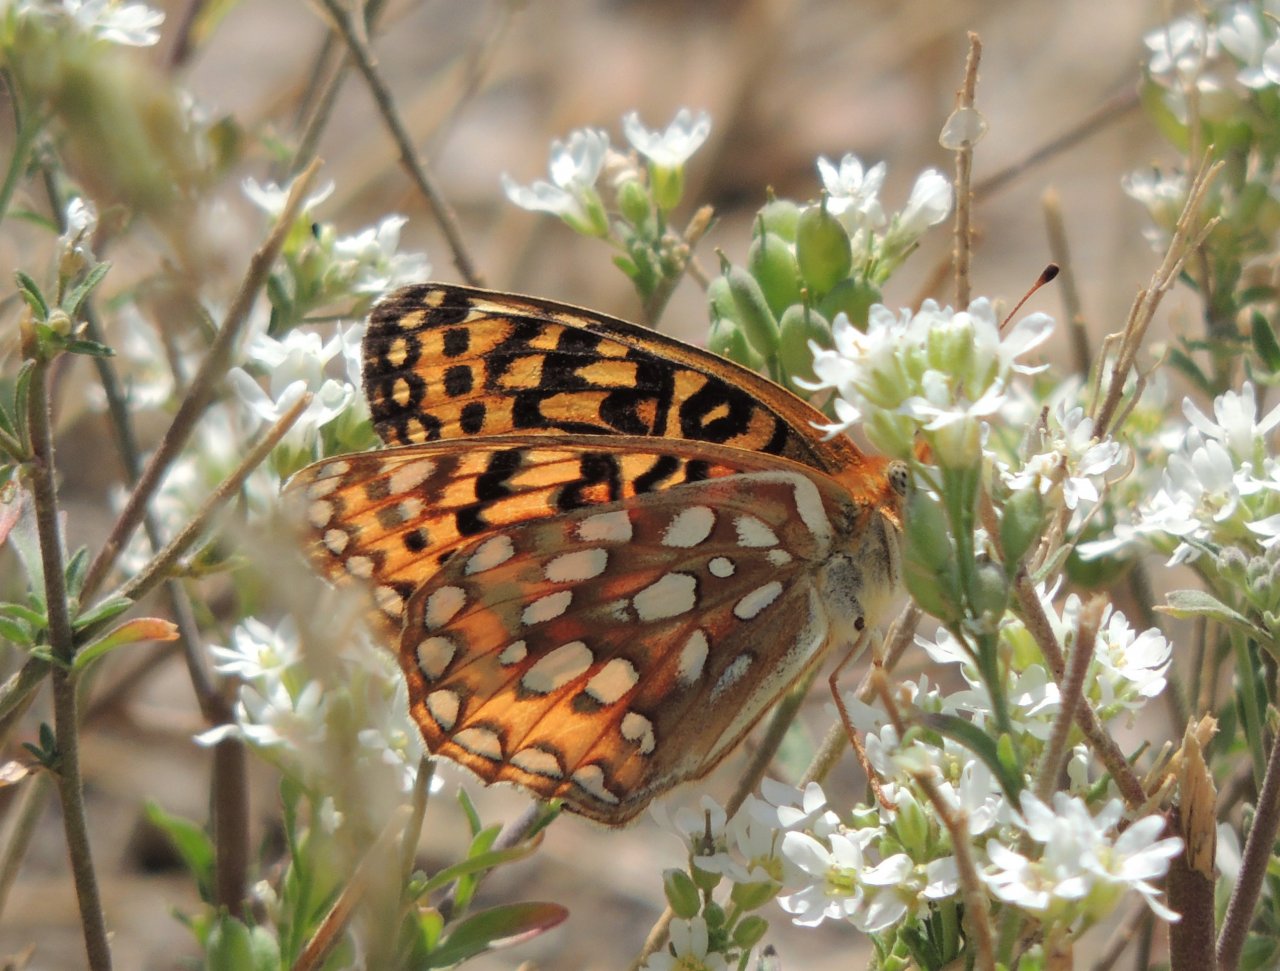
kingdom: Animalia
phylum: Arthropoda
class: Insecta
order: Lepidoptera
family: Nymphalidae
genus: Speyeria
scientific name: Speyeria zerene
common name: Zerene Fritillary
